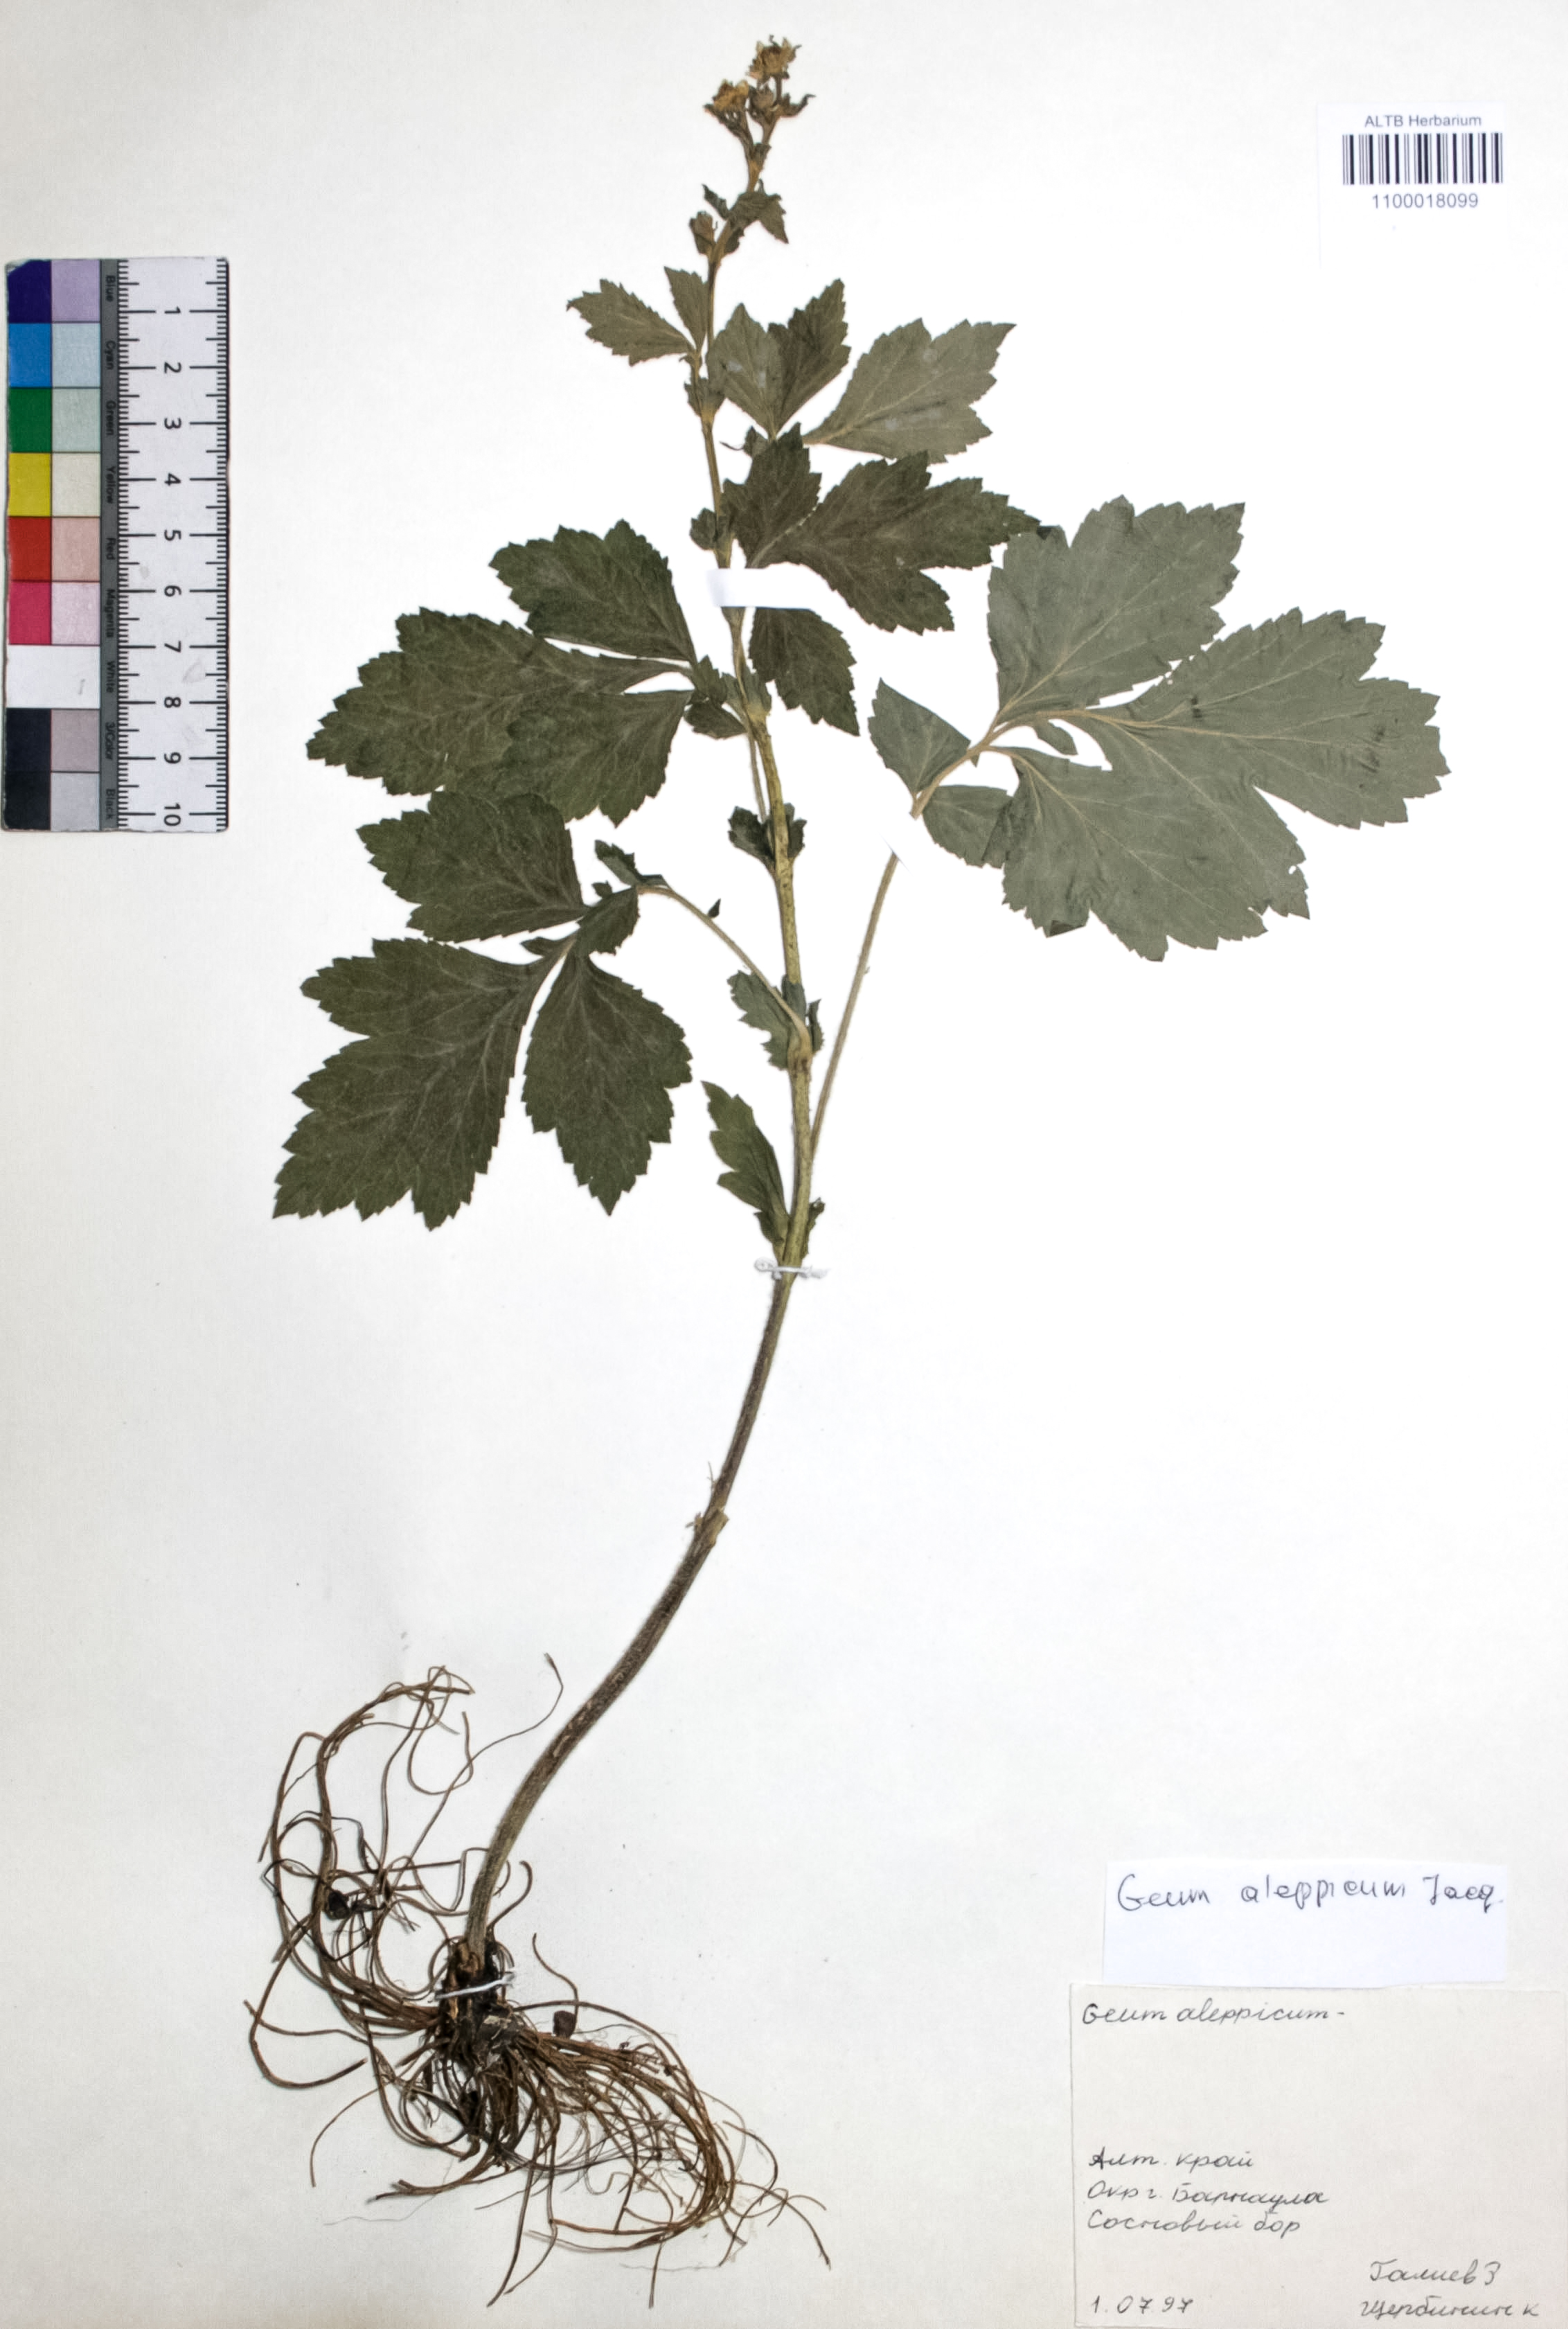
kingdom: Plantae
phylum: Tracheophyta
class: Magnoliopsida
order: Rosales
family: Rosaceae
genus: Geum
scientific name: Geum aleppicum
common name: Yellow avens
